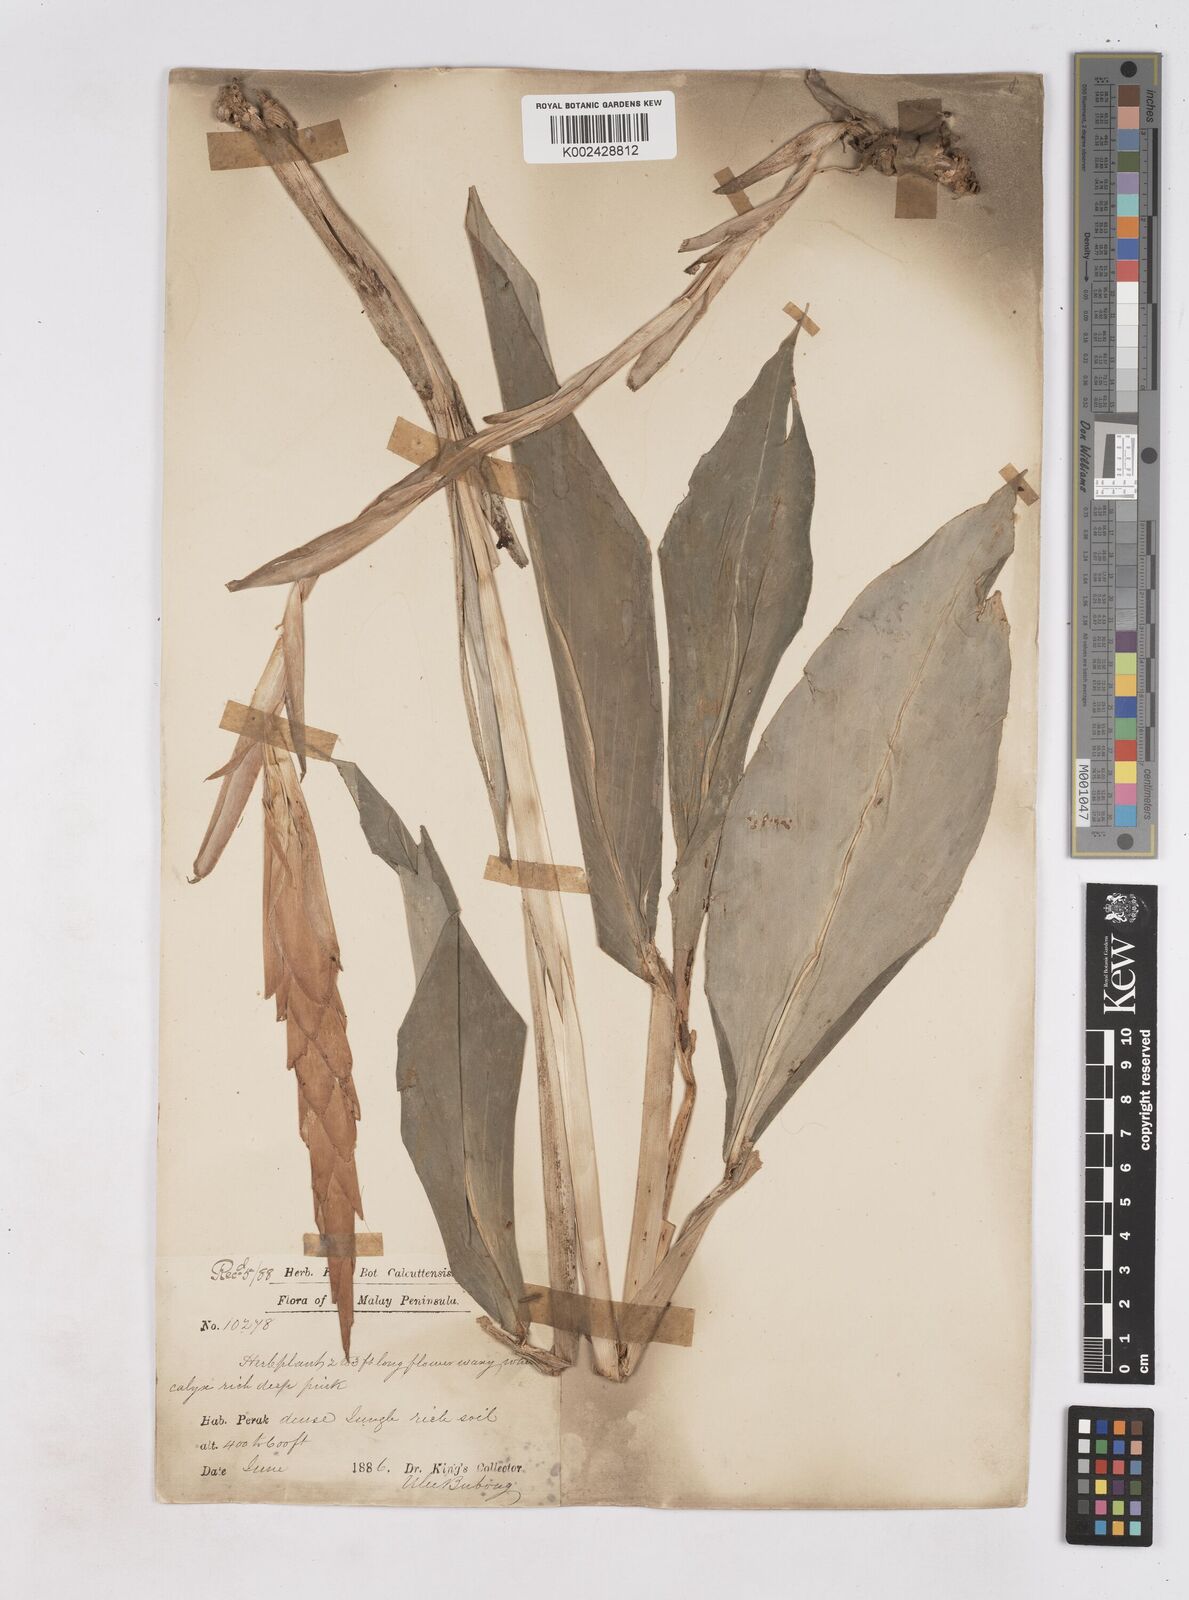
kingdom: Plantae
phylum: Tracheophyta
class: Liliopsida
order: Zingiberales
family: Zingiberaceae
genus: Zingiber
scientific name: Zingiber griffithii
